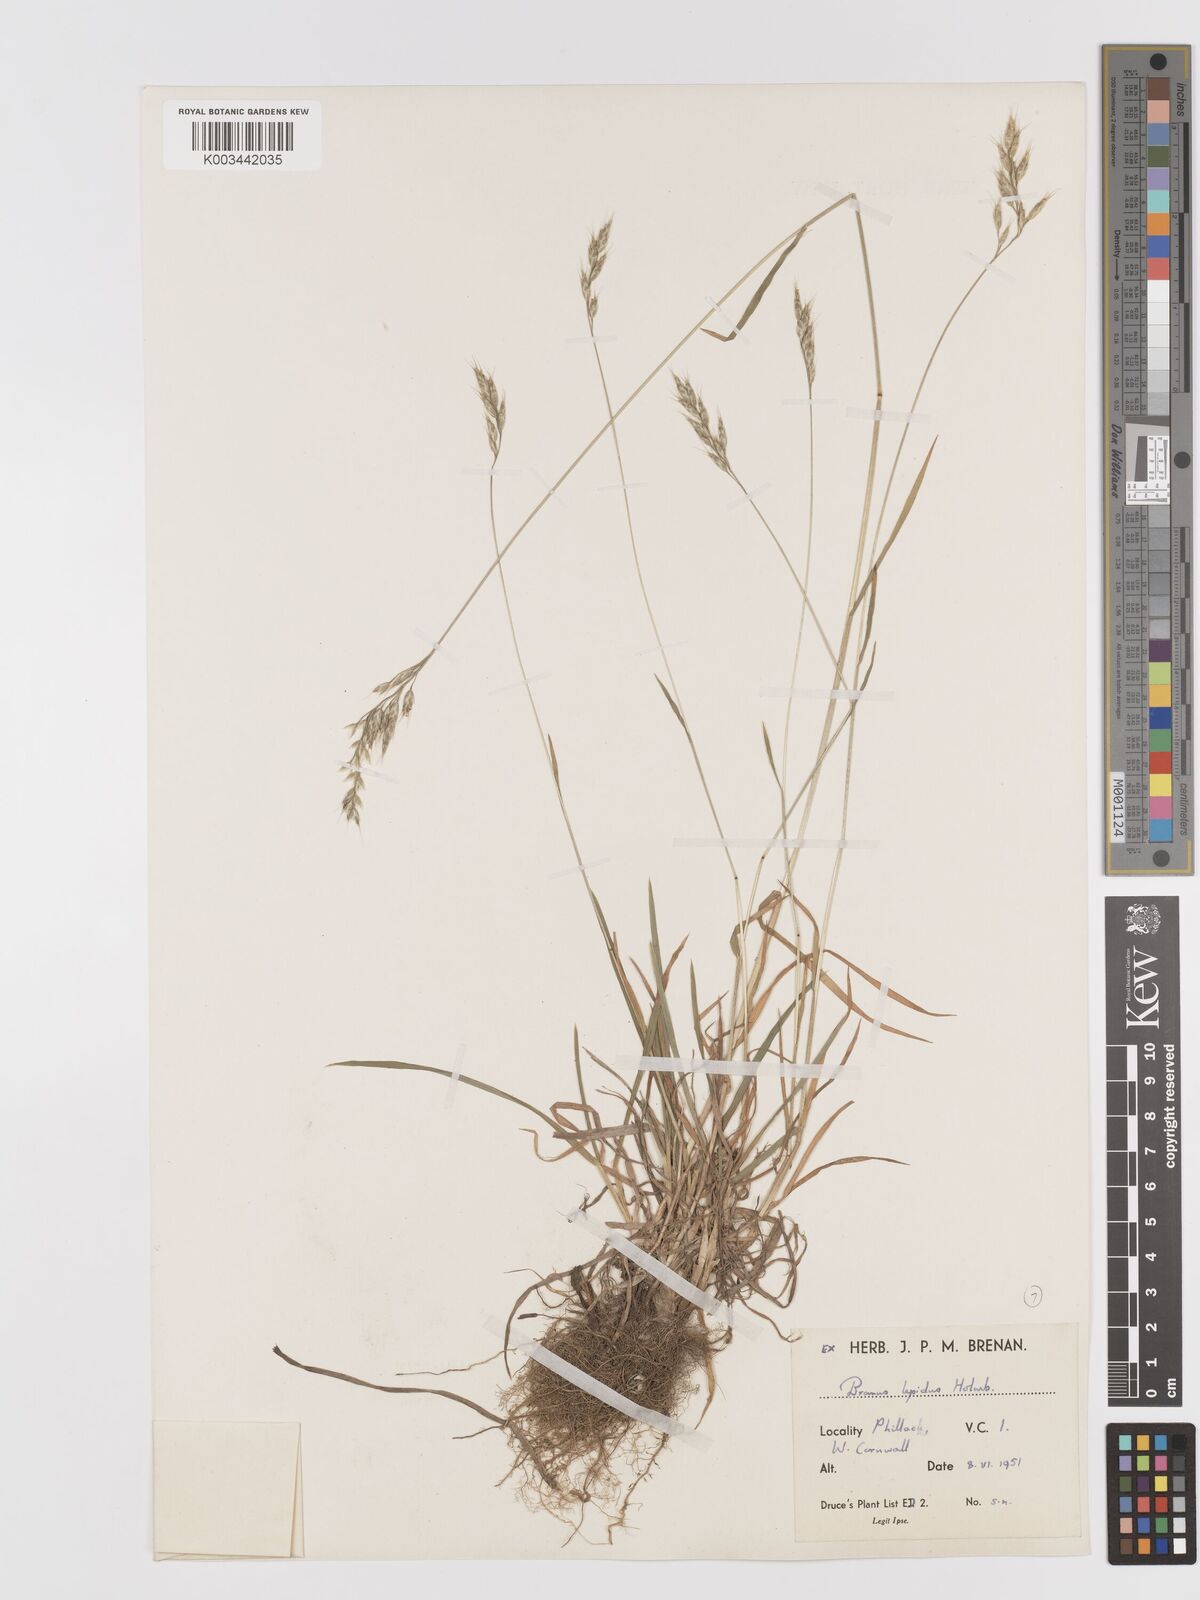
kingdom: Plantae
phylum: Tracheophyta
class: Liliopsida
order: Poales
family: Poaceae
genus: Bromus
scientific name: Bromus lepidus
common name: Slender soft-brome
